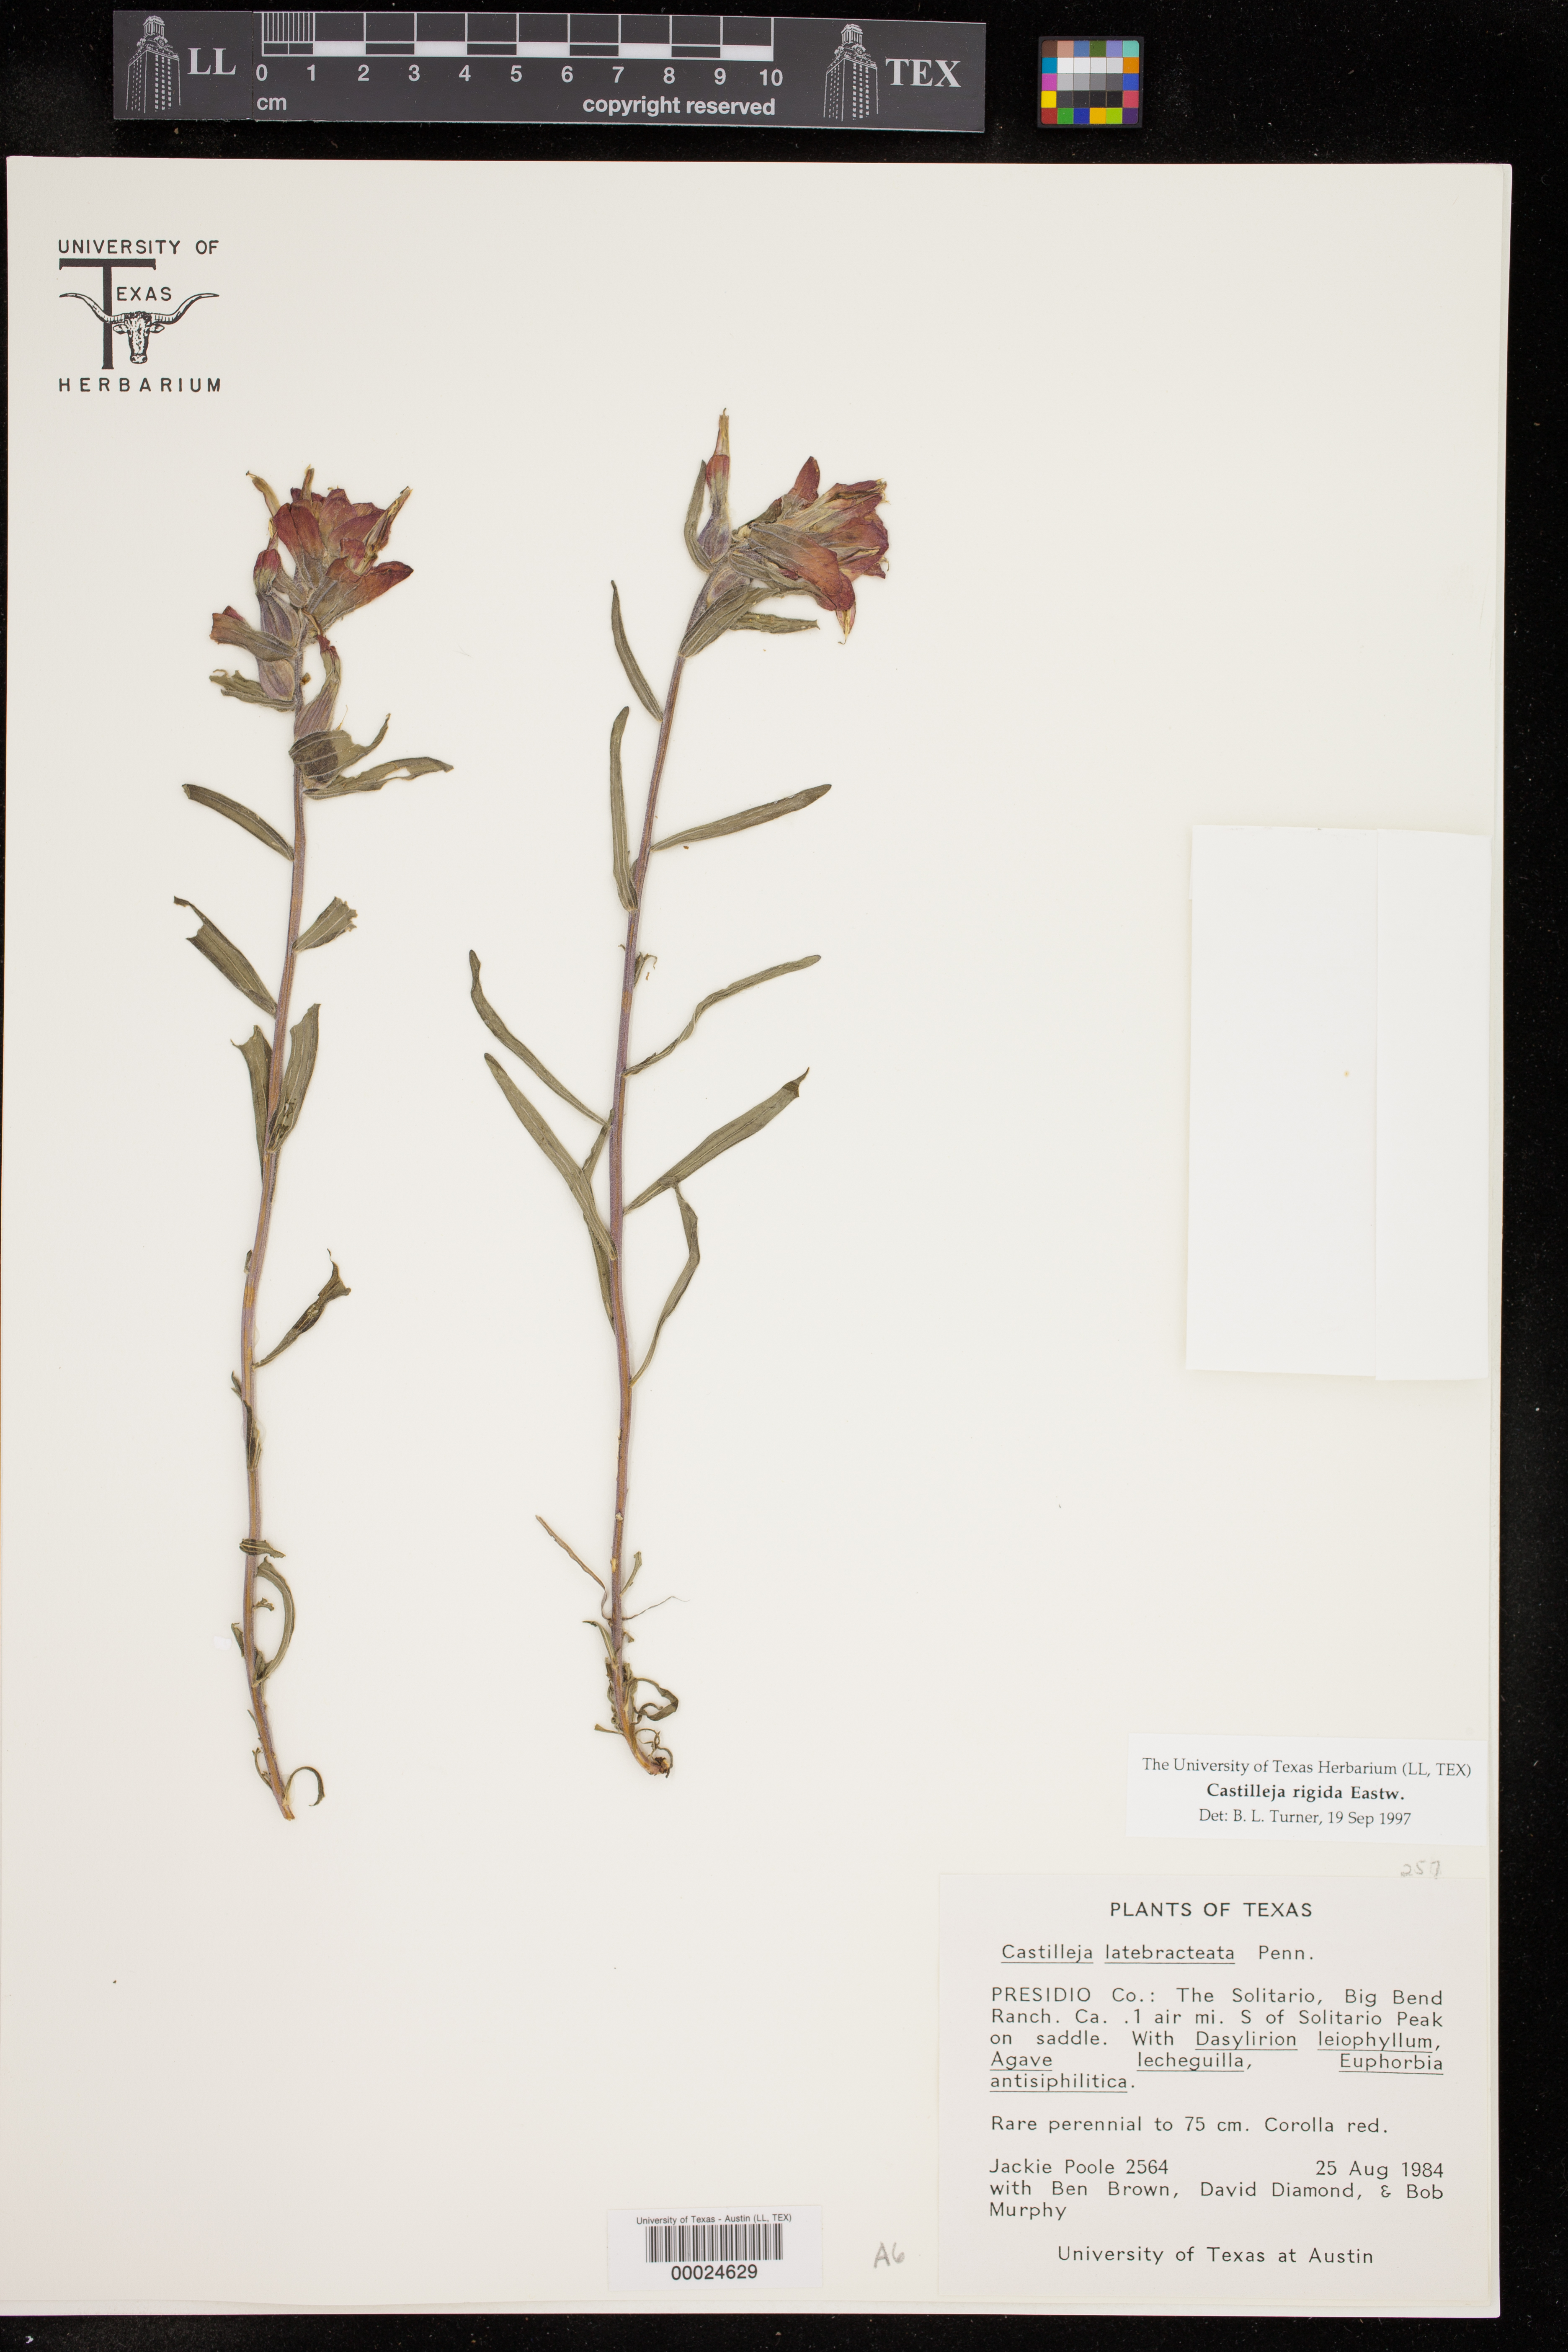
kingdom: Plantae
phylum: Tracheophyta
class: Magnoliopsida
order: Lamiales
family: Orobanchaceae
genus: Castilleja
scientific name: Castilleja rigida
